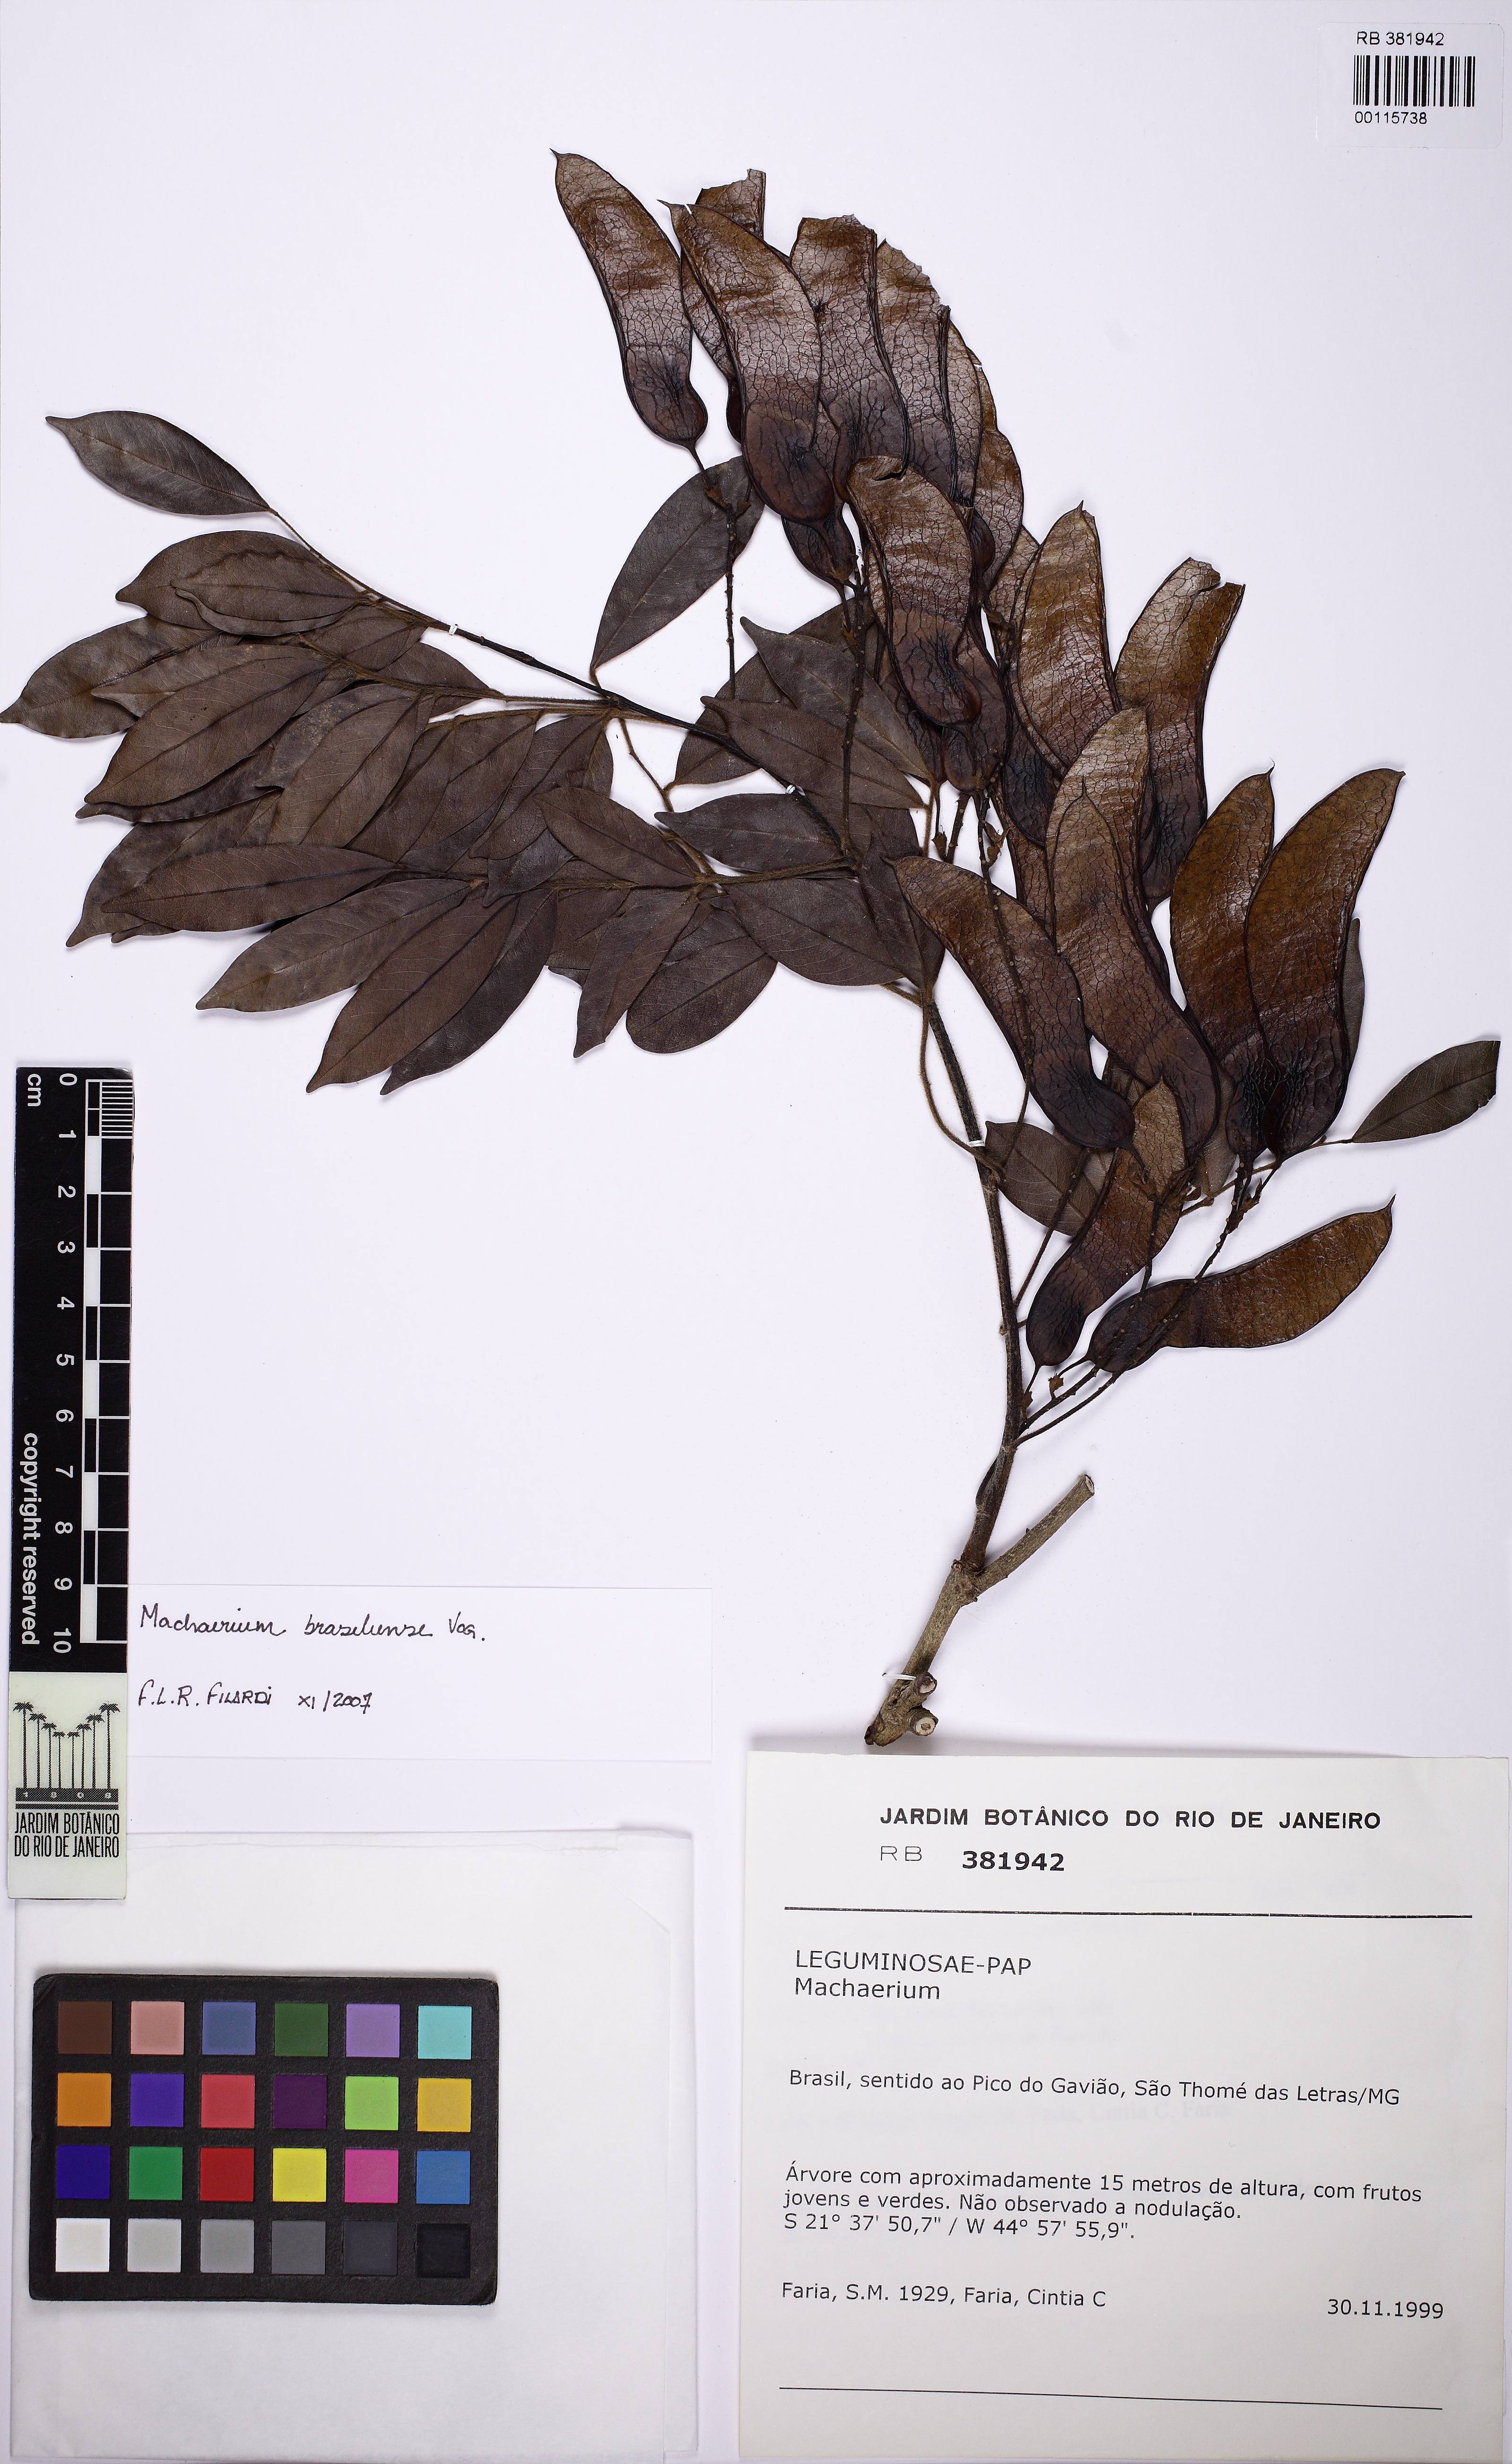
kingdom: Plantae
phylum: Tracheophyta
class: Magnoliopsida
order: Fabales
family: Fabaceae
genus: Machaerium
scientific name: Machaerium
